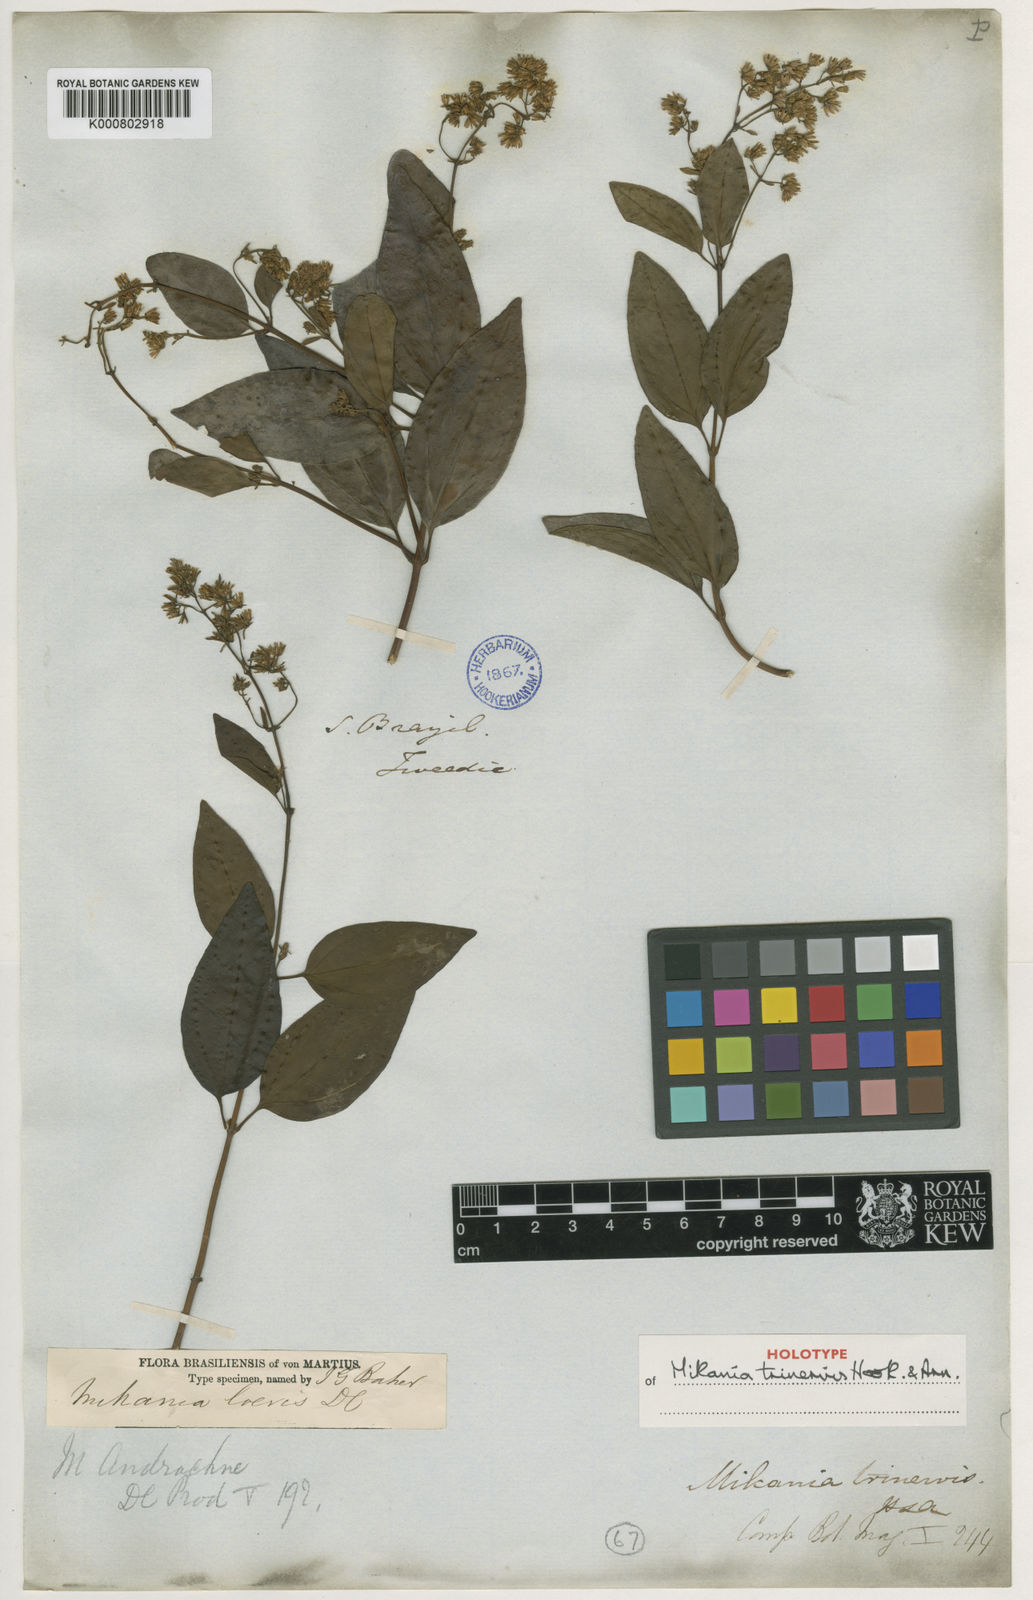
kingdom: Plantae
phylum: Tracheophyta
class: Magnoliopsida
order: Asterales
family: Asteraceae
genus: Mikania
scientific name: Mikania trinervis
